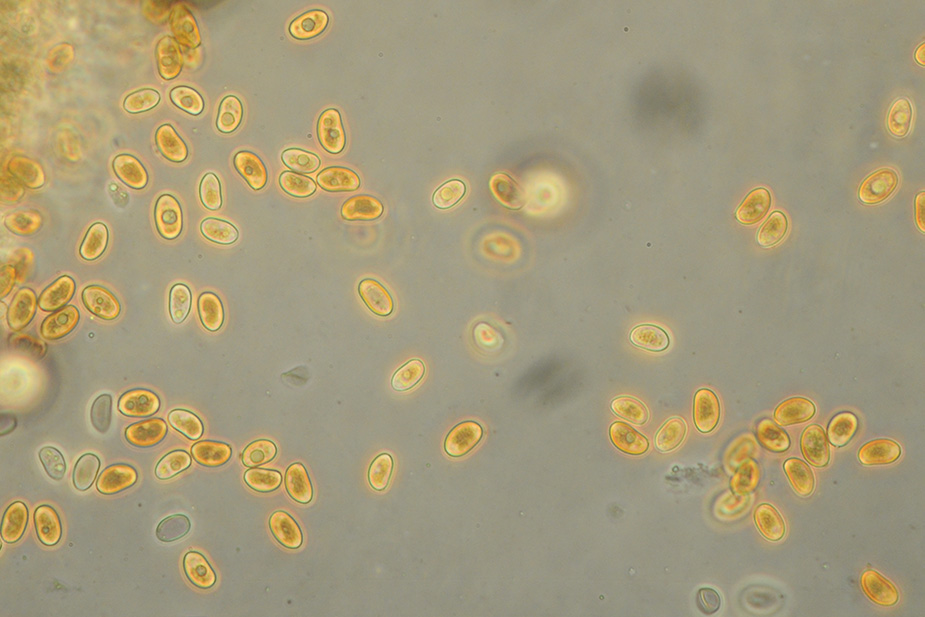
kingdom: Fungi
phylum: Basidiomycota
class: Agaricomycetes
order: Agaricales
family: Crepidotaceae
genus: Simocybe
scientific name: Simocybe centunculus
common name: enlig skyggehat
